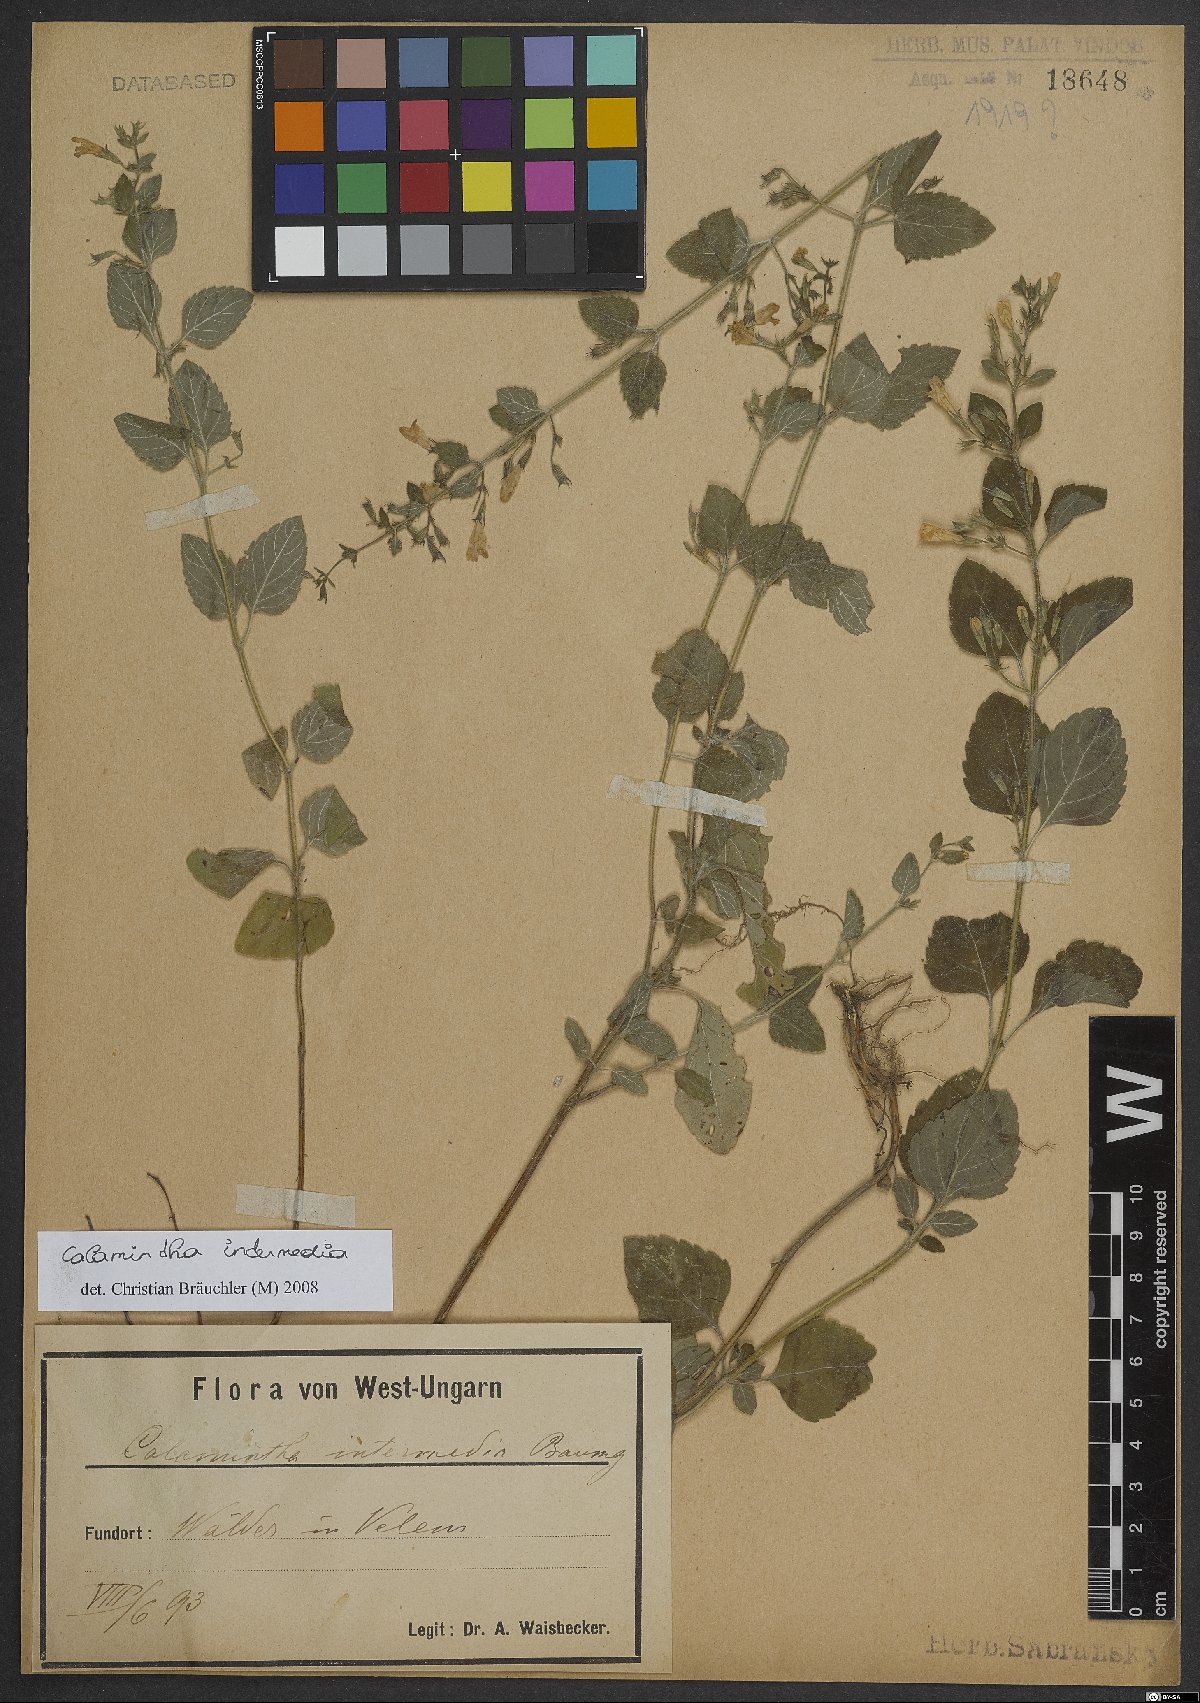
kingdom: Plantae
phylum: Tracheophyta
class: Magnoliopsida
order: Lamiales
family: Lamiaceae
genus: Clinopodium
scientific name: Clinopodium Calamintha intermedia
